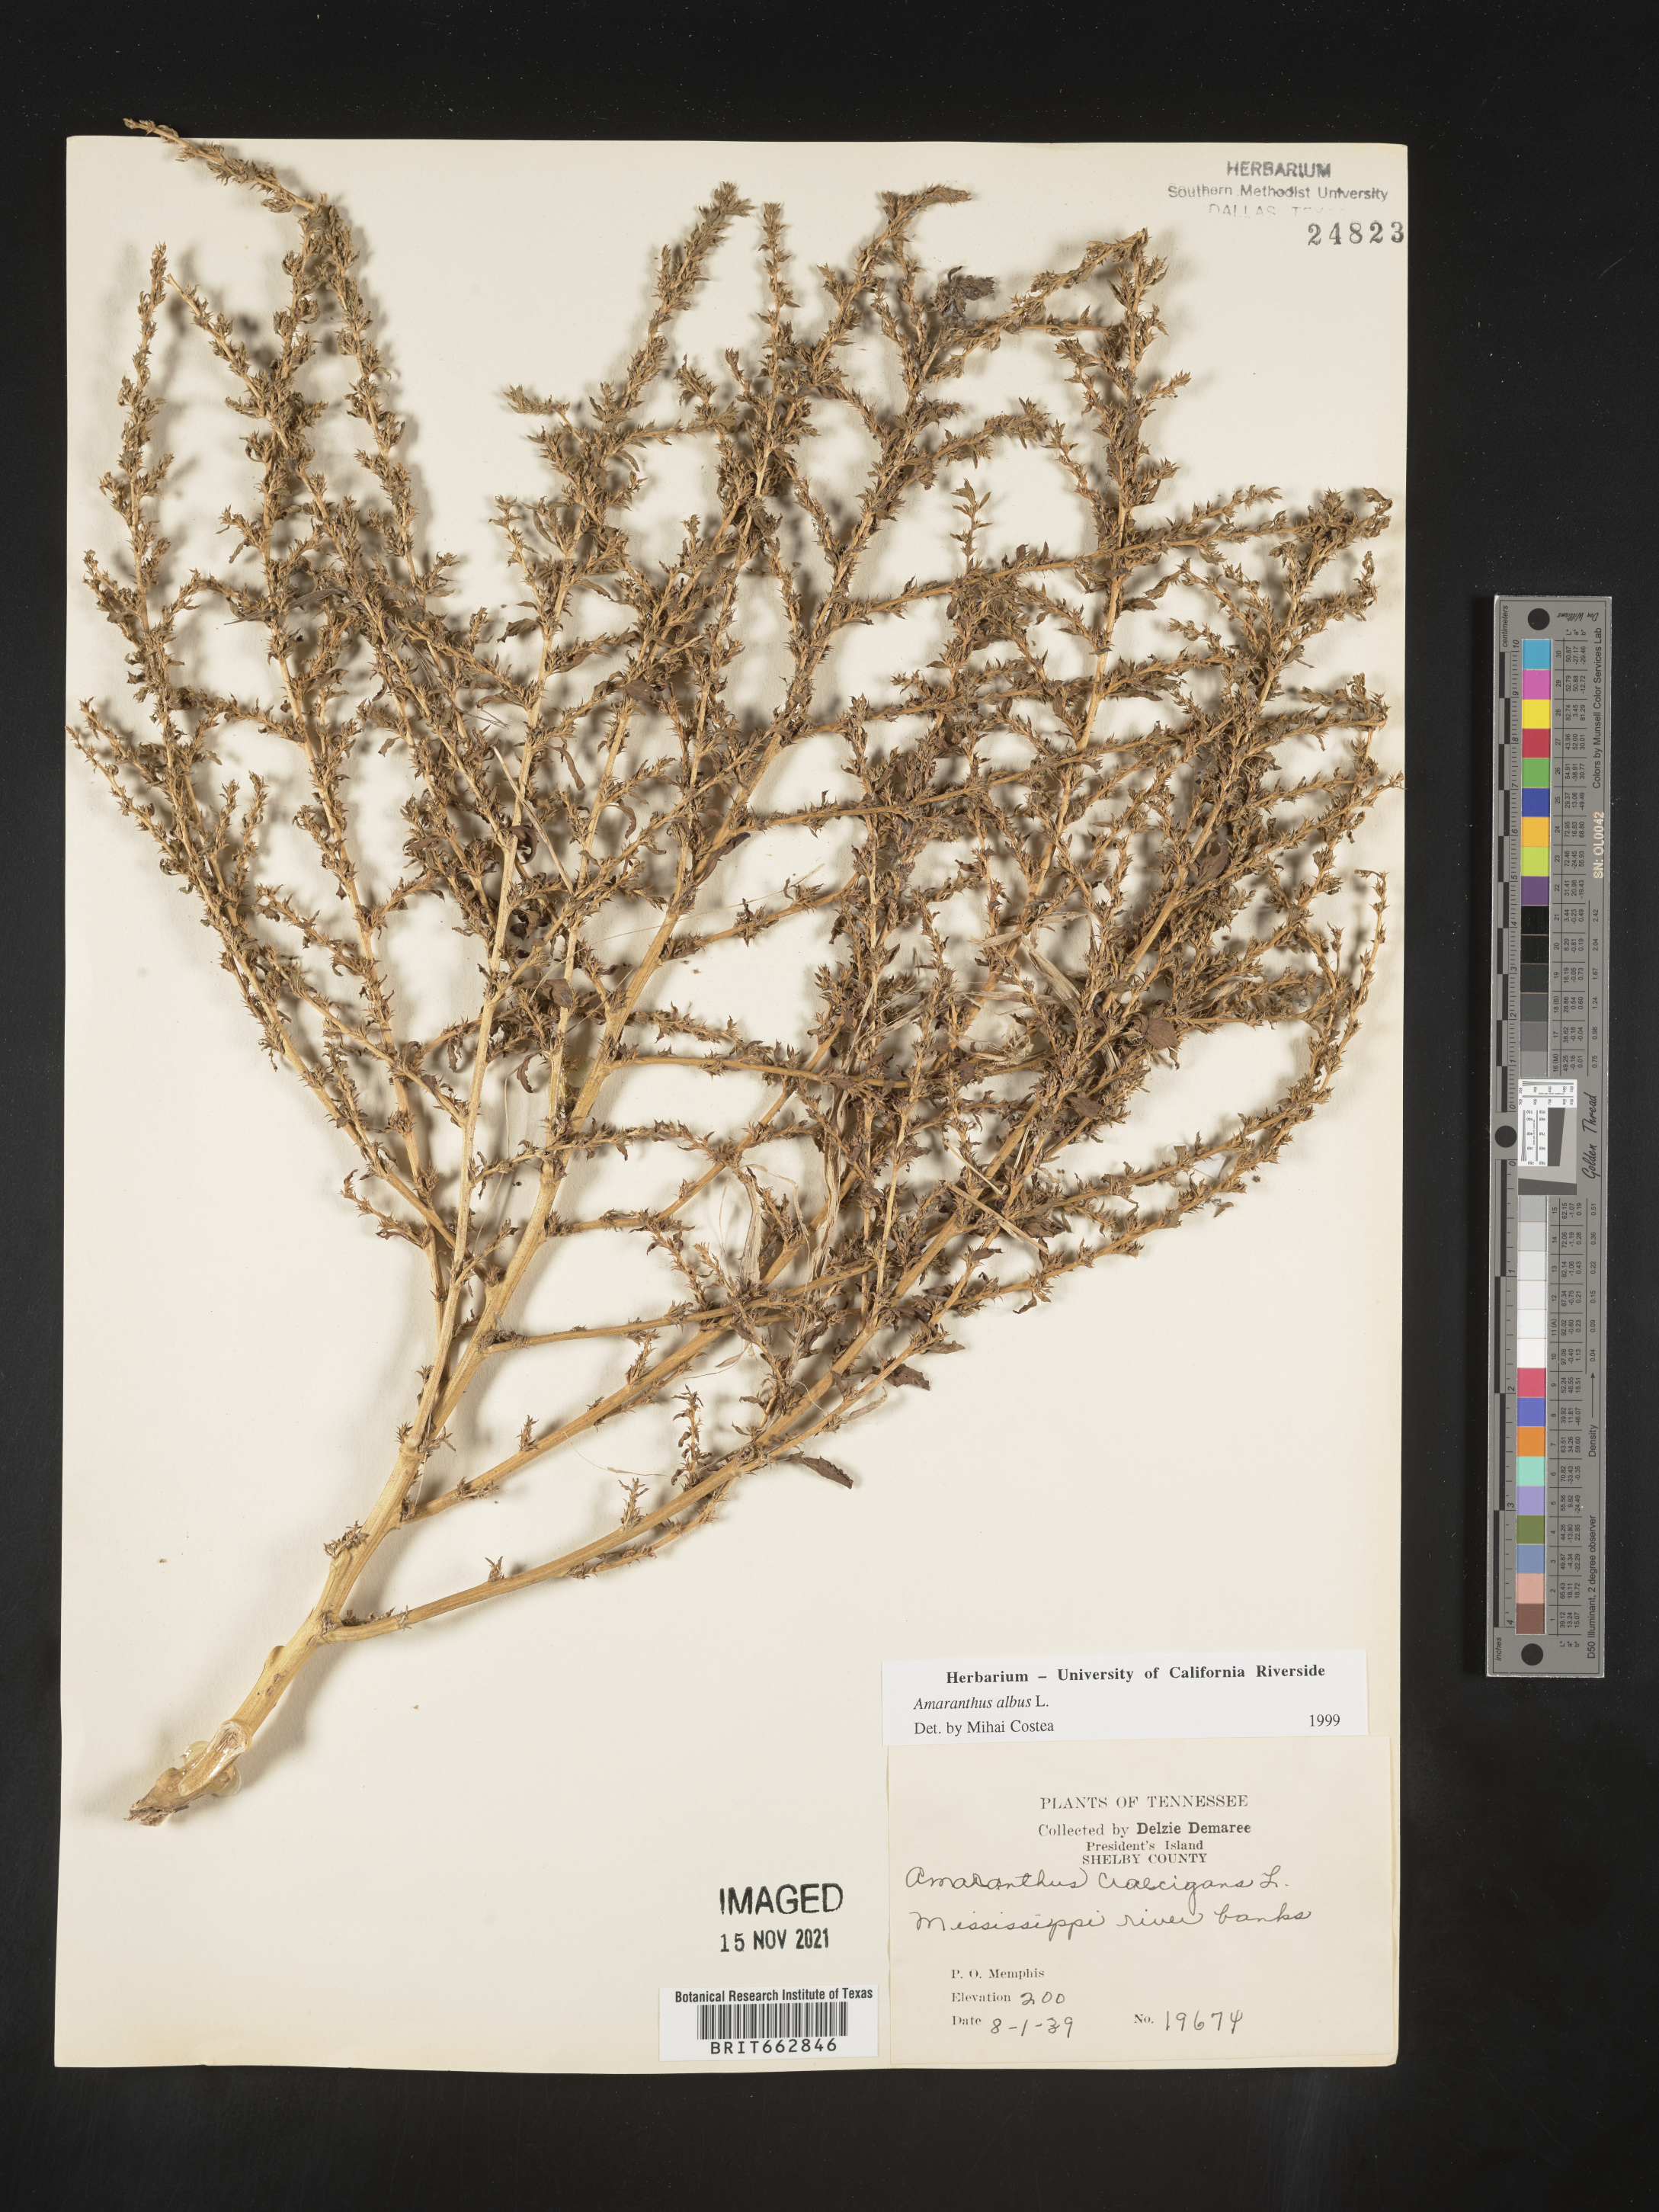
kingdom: Plantae
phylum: Tracheophyta
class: Magnoliopsida
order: Caryophyllales
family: Amaranthaceae
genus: Amaranthus
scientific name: Amaranthus albus
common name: White pigweed
